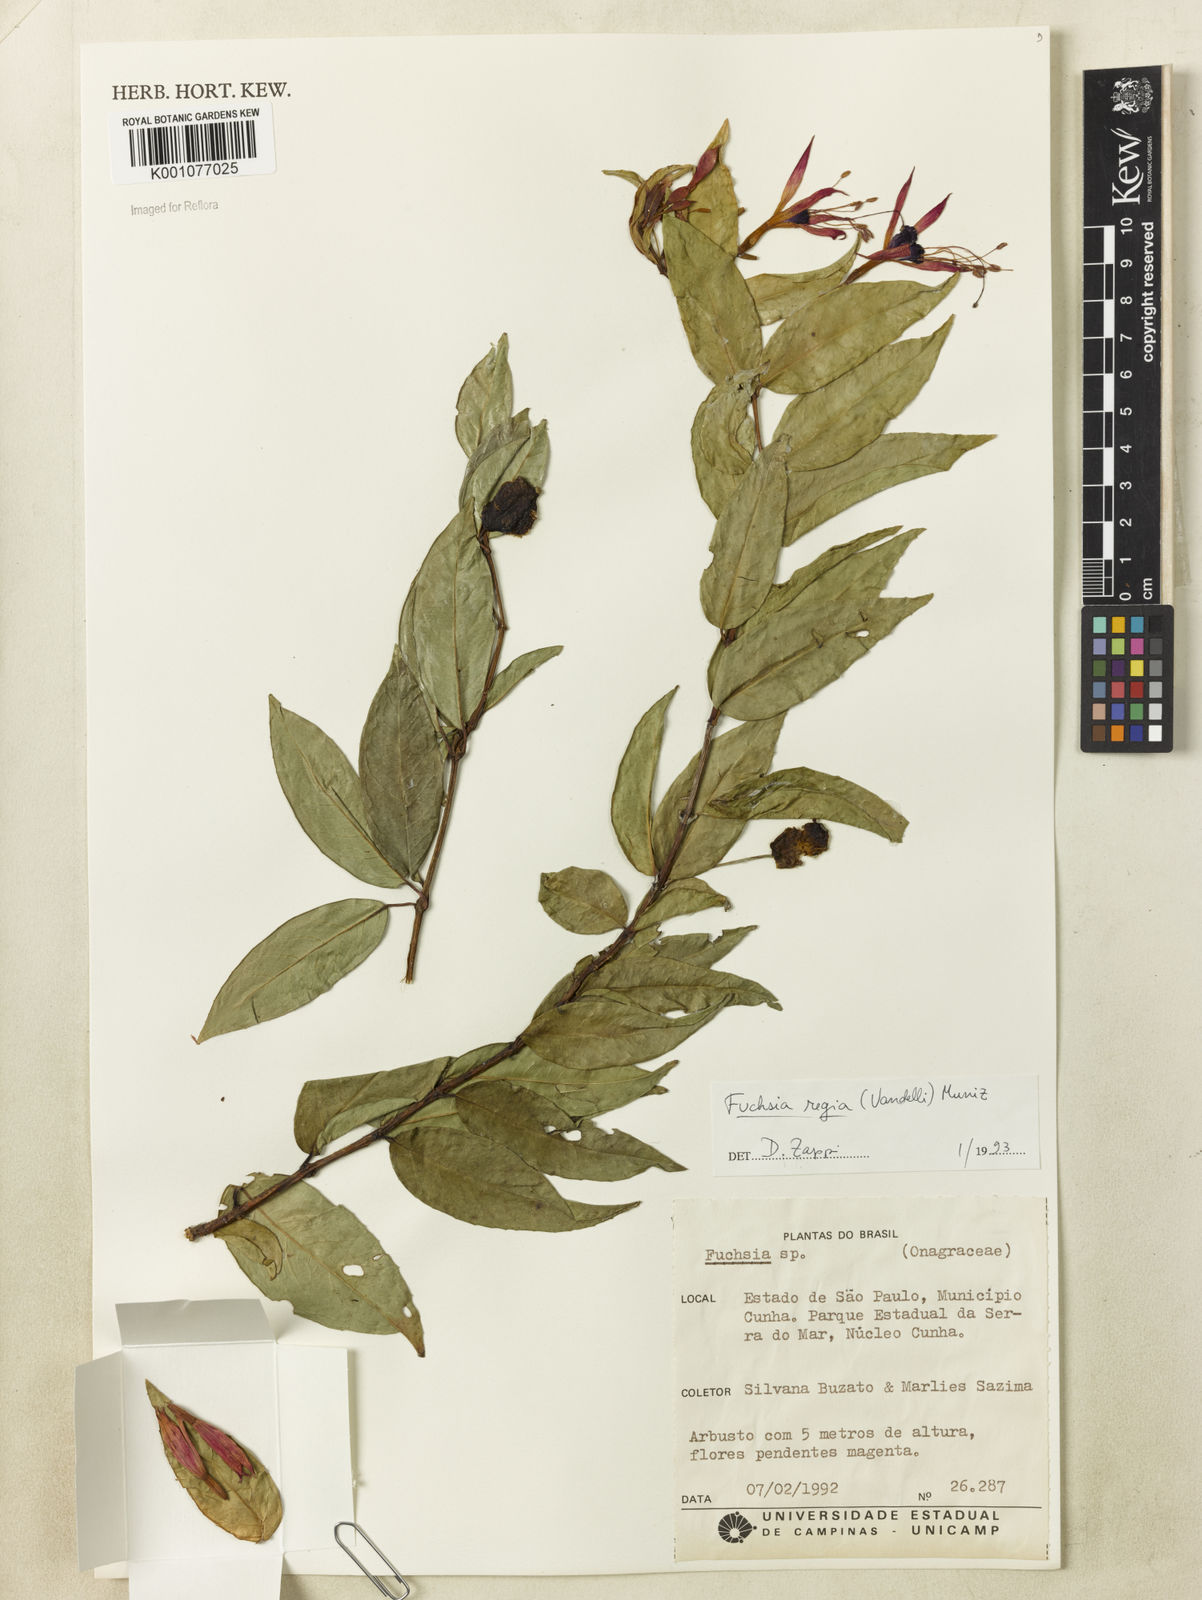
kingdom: Plantae
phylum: Tracheophyta
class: Magnoliopsida
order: Myrtales
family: Onagraceae
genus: Fuchsia
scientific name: Fuchsia regia
